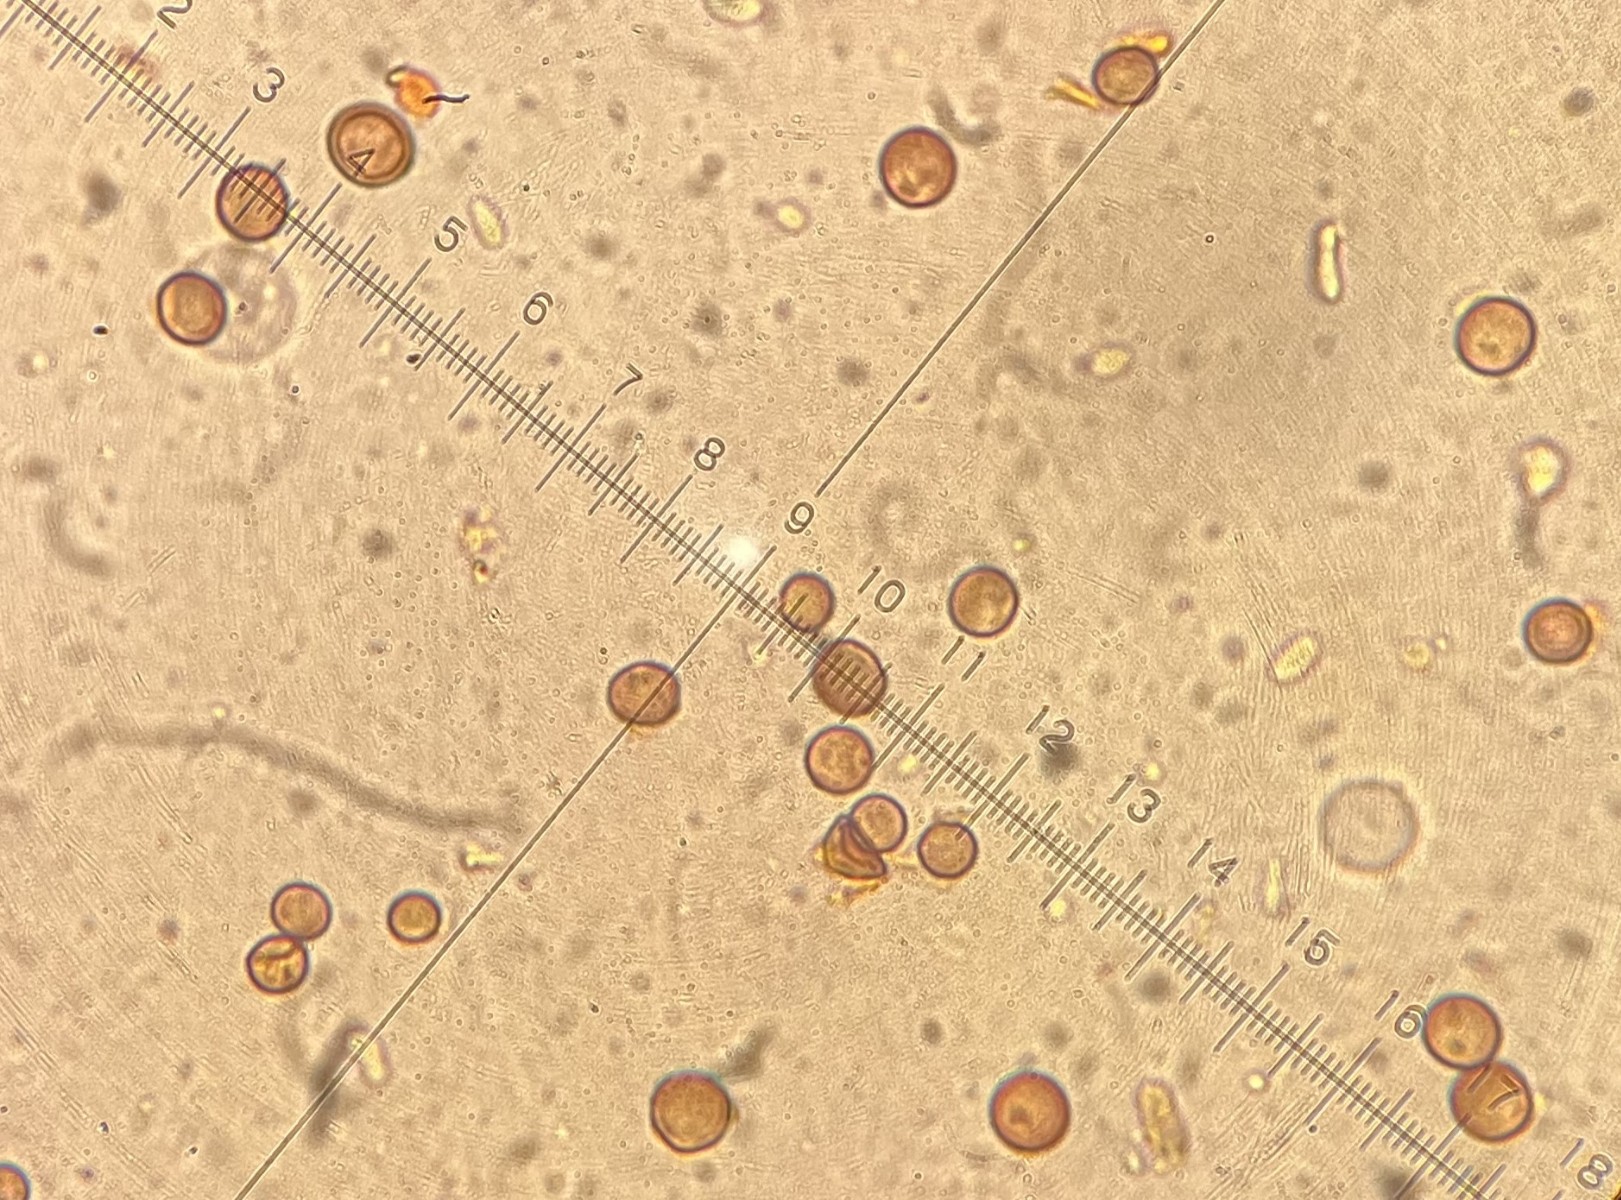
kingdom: Fungi
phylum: Basidiomycota
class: Atractiellomycetes
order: Atractiellales
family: Phleogenaceae
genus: Phleogena
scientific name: Phleogena faginea
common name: pudderkølle
